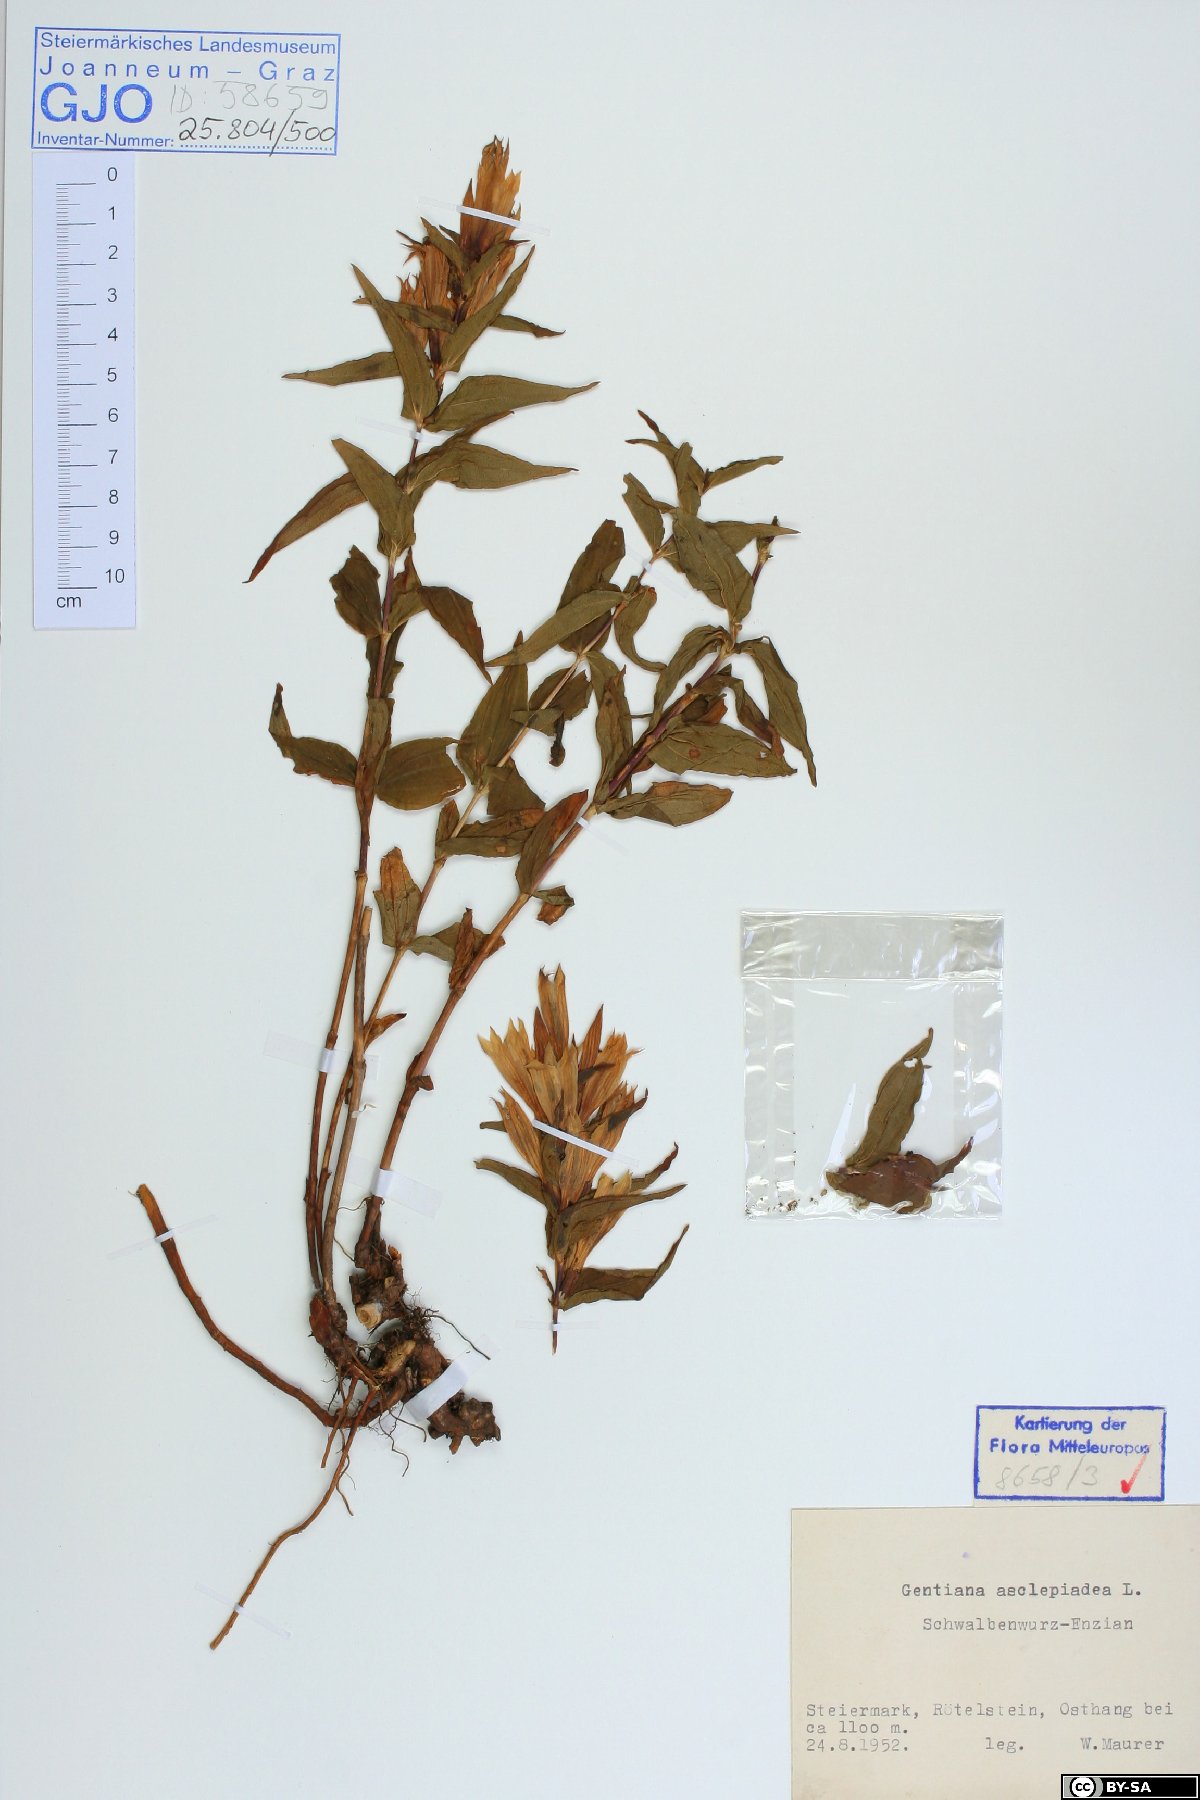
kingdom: Plantae
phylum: Tracheophyta
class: Magnoliopsida
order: Gentianales
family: Gentianaceae
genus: Gentiana
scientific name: Gentiana asclepiadea
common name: Willow gentian
